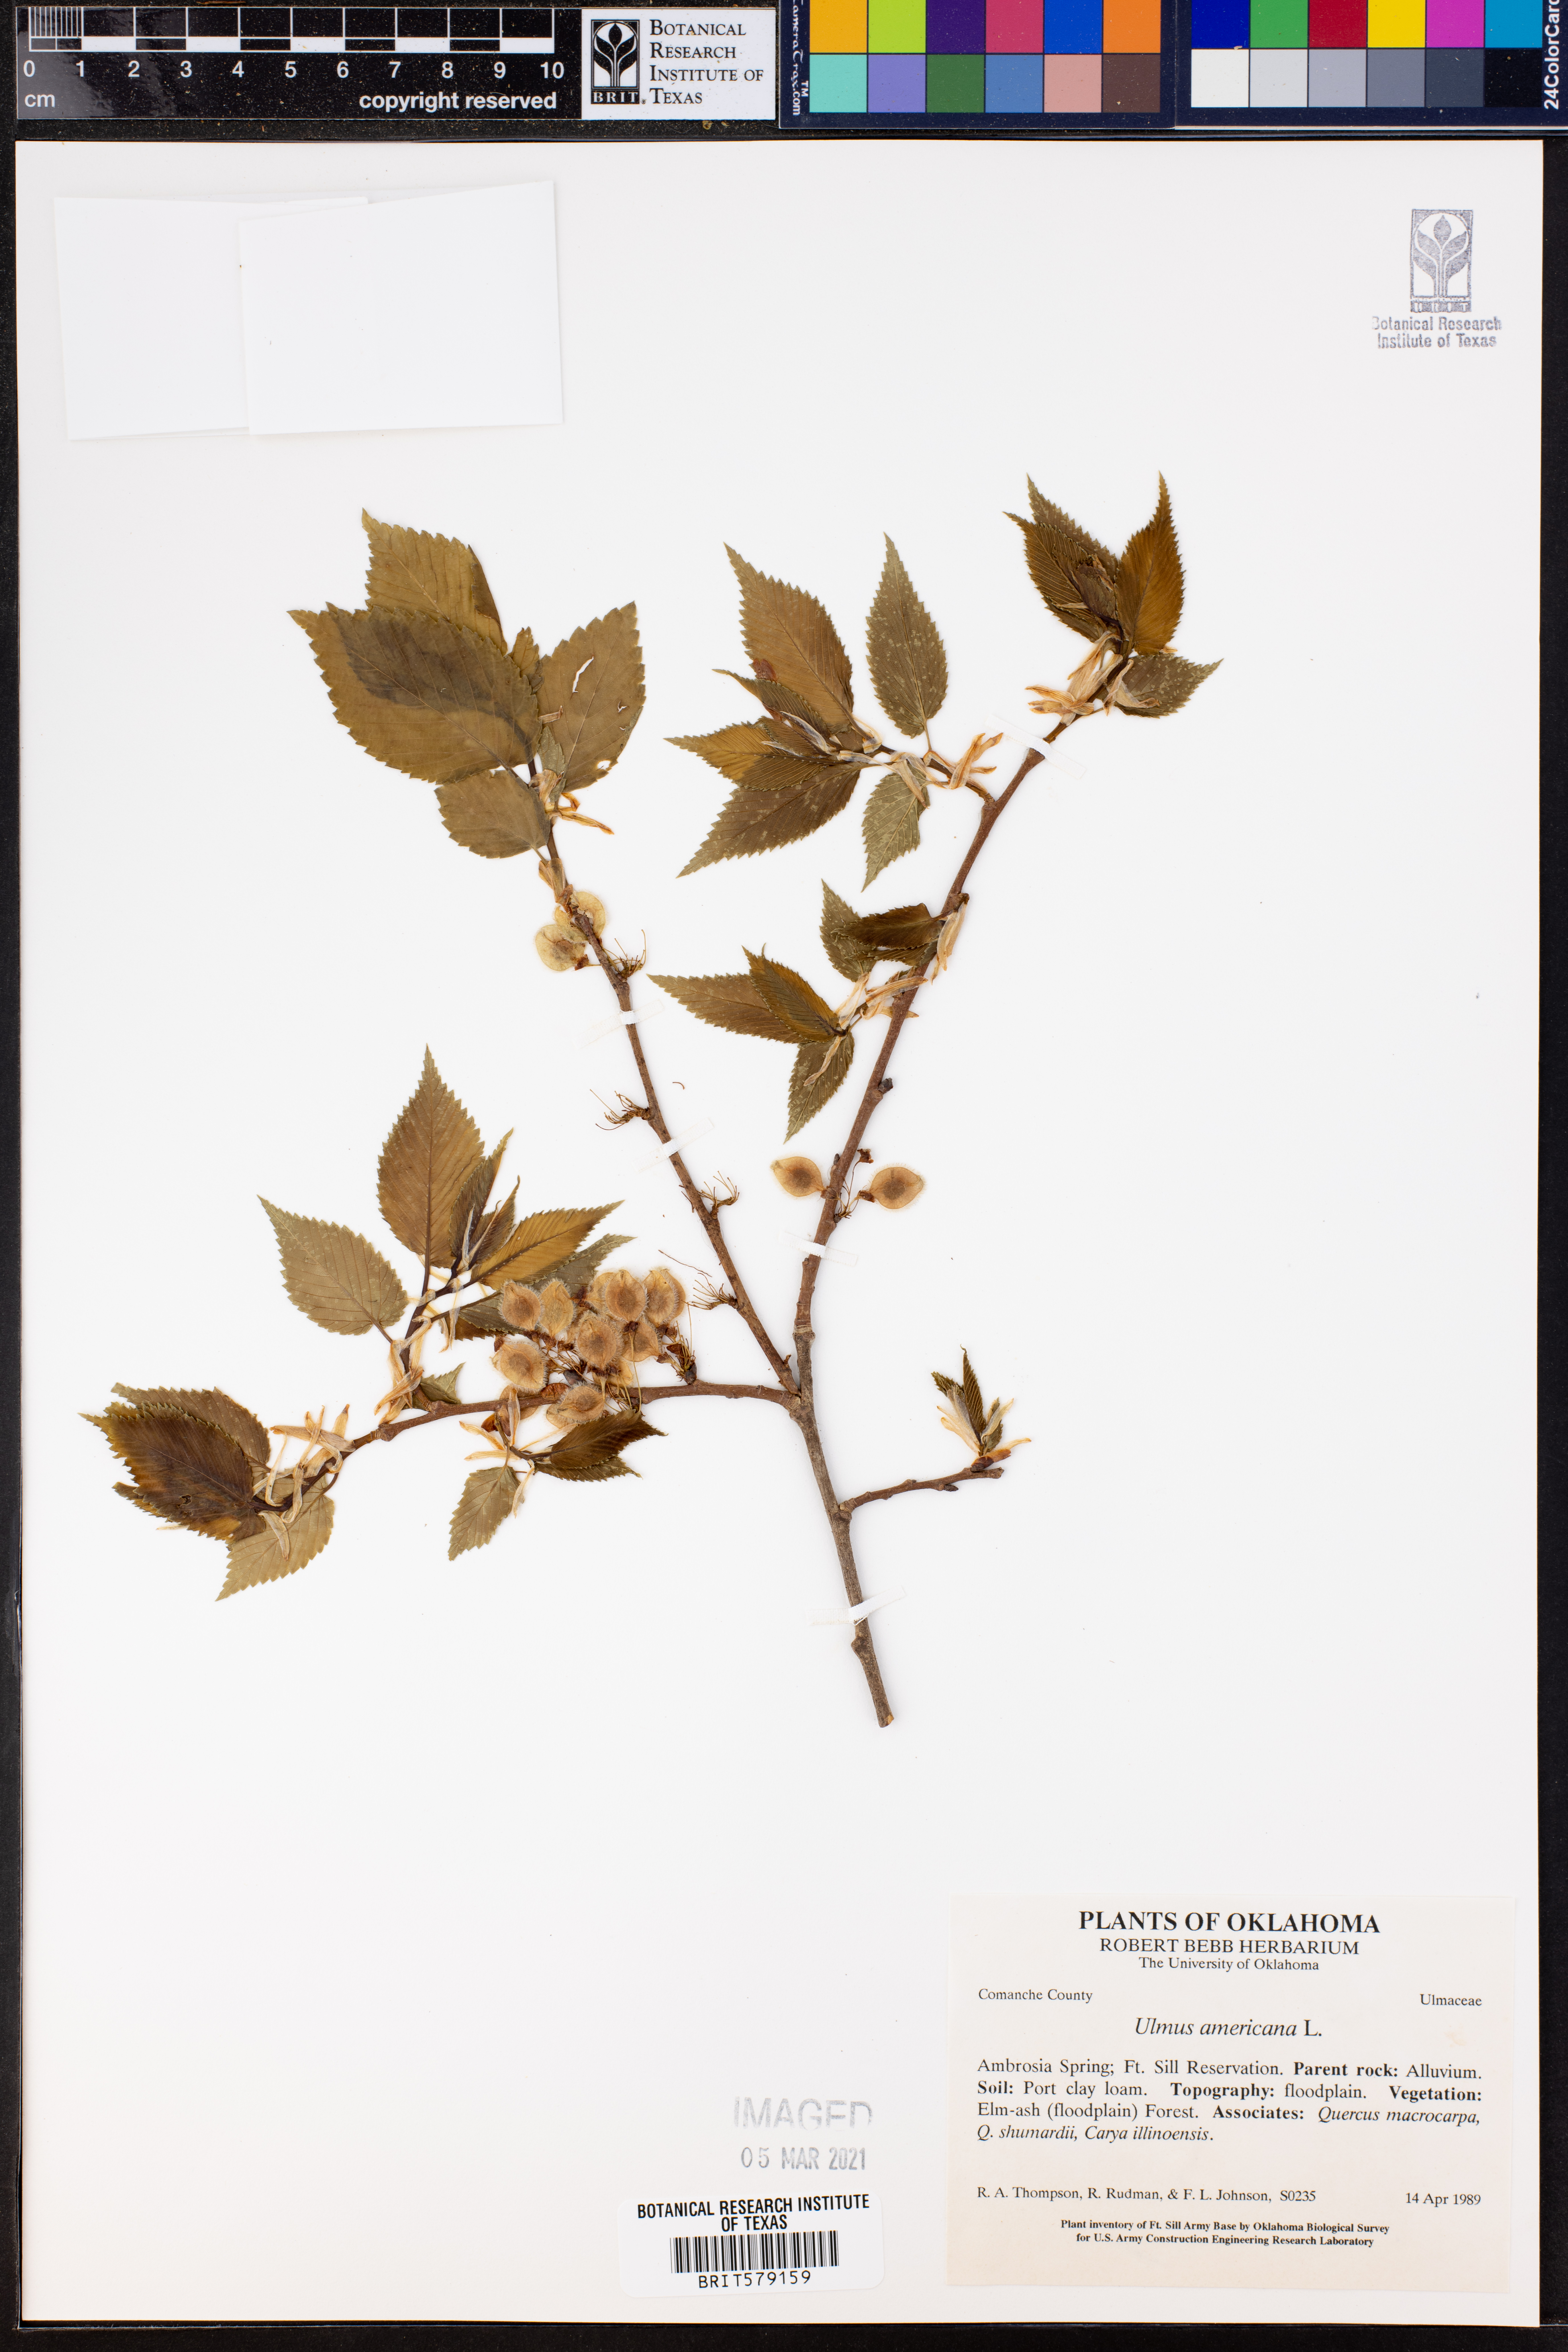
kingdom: Plantae
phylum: Tracheophyta
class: Magnoliopsida
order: Rosales
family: Ulmaceae
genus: Ulmus
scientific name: Ulmus americana
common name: American elm
